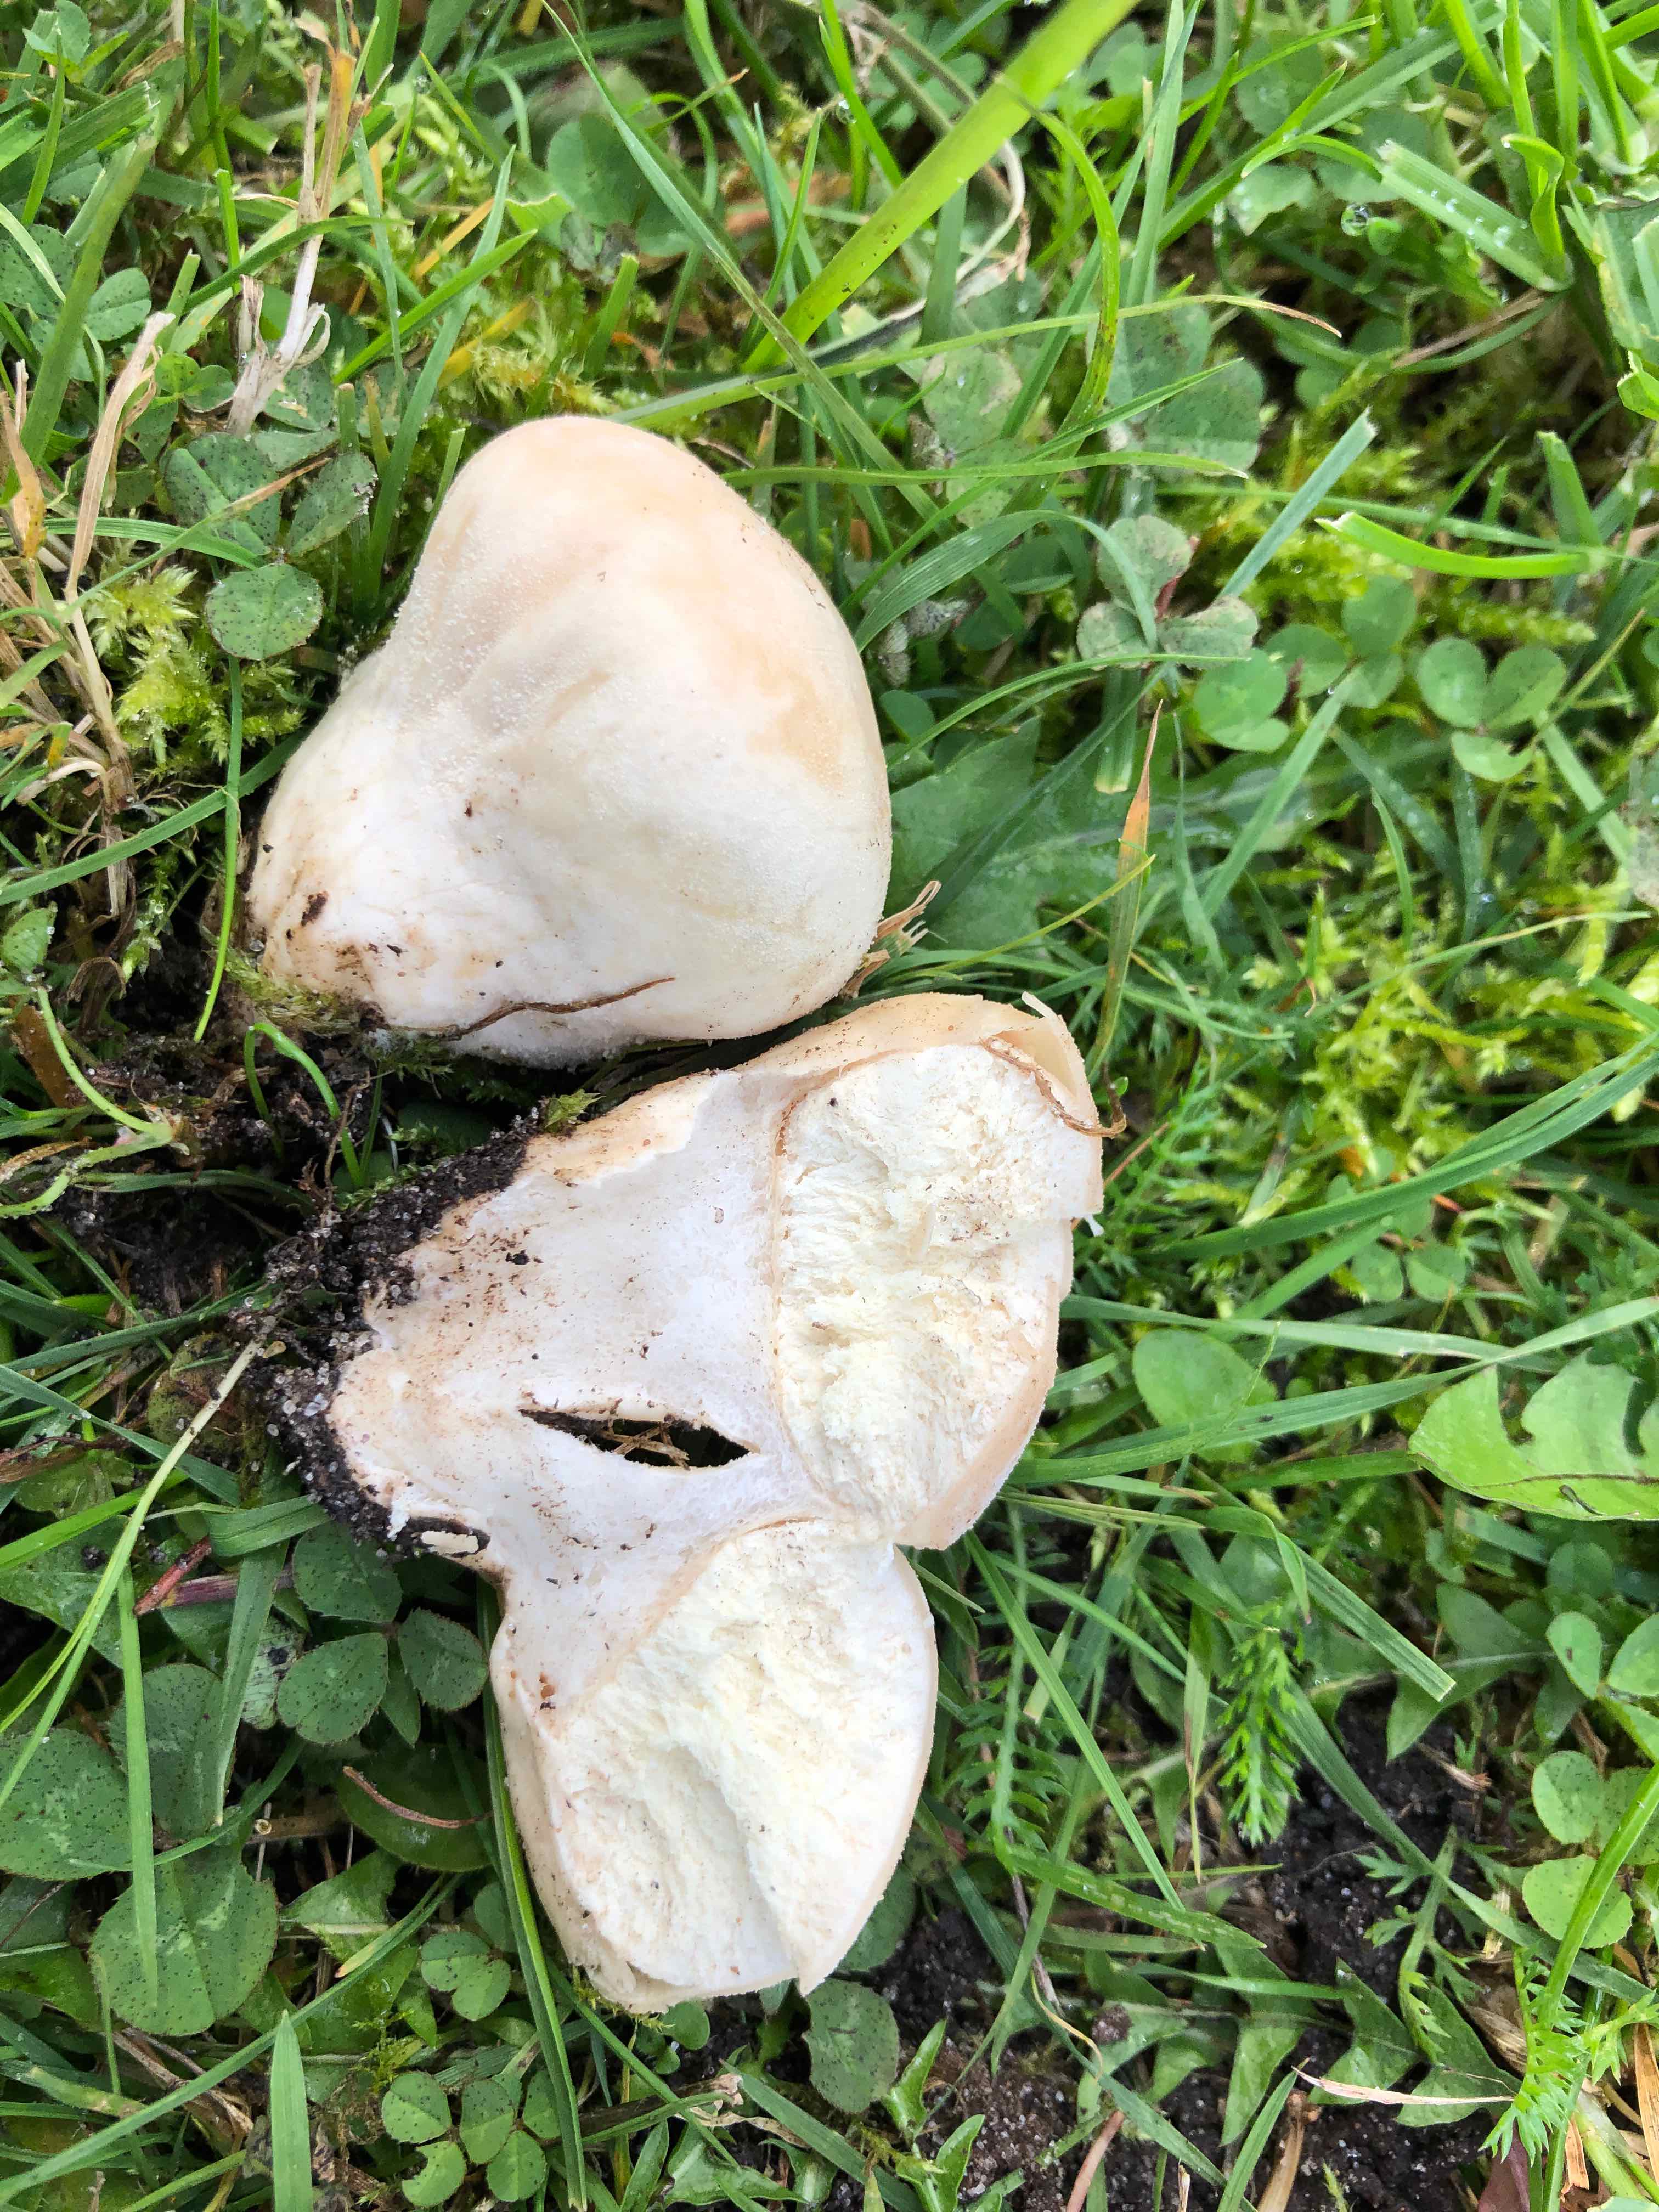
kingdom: Fungi
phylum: Basidiomycota
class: Agaricomycetes
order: Agaricales
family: Lycoperdaceae
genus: Lycoperdon
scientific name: Lycoperdon pratense
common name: flad støvbold
